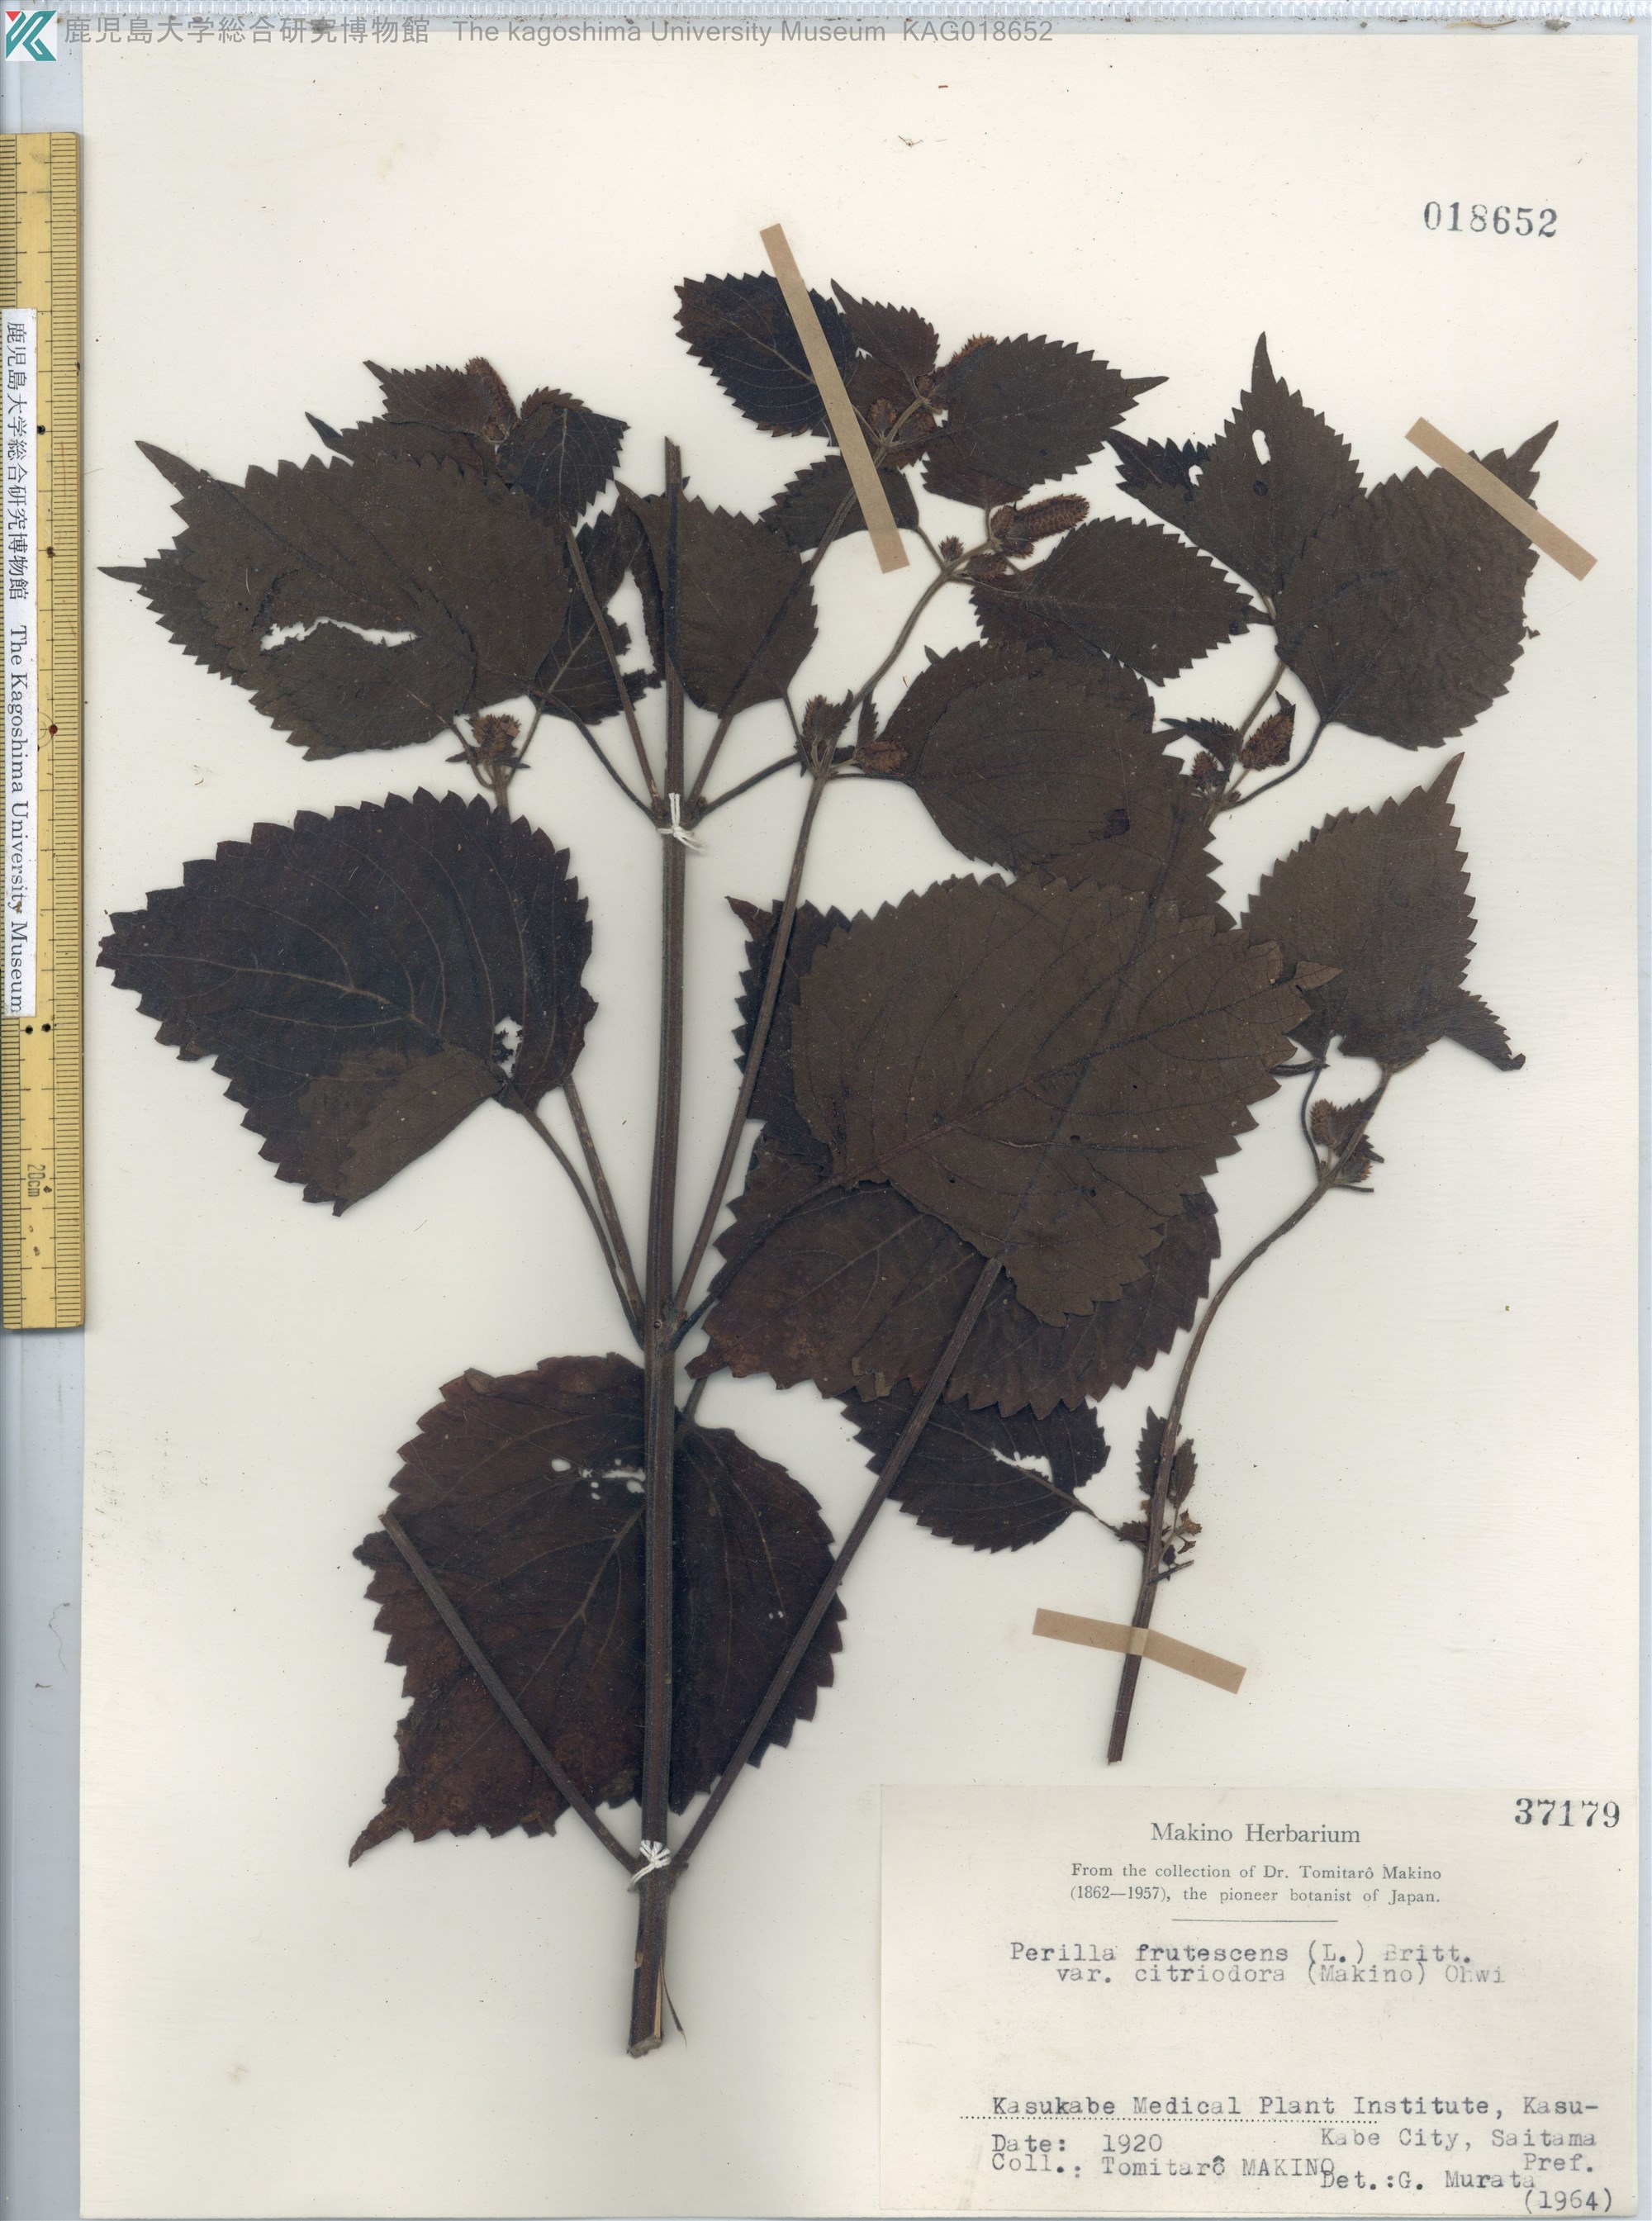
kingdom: Plantae
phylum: Tracheophyta
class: Magnoliopsida
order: Lamiales
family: Lamiaceae
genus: Perilla
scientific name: Perilla frutescens
